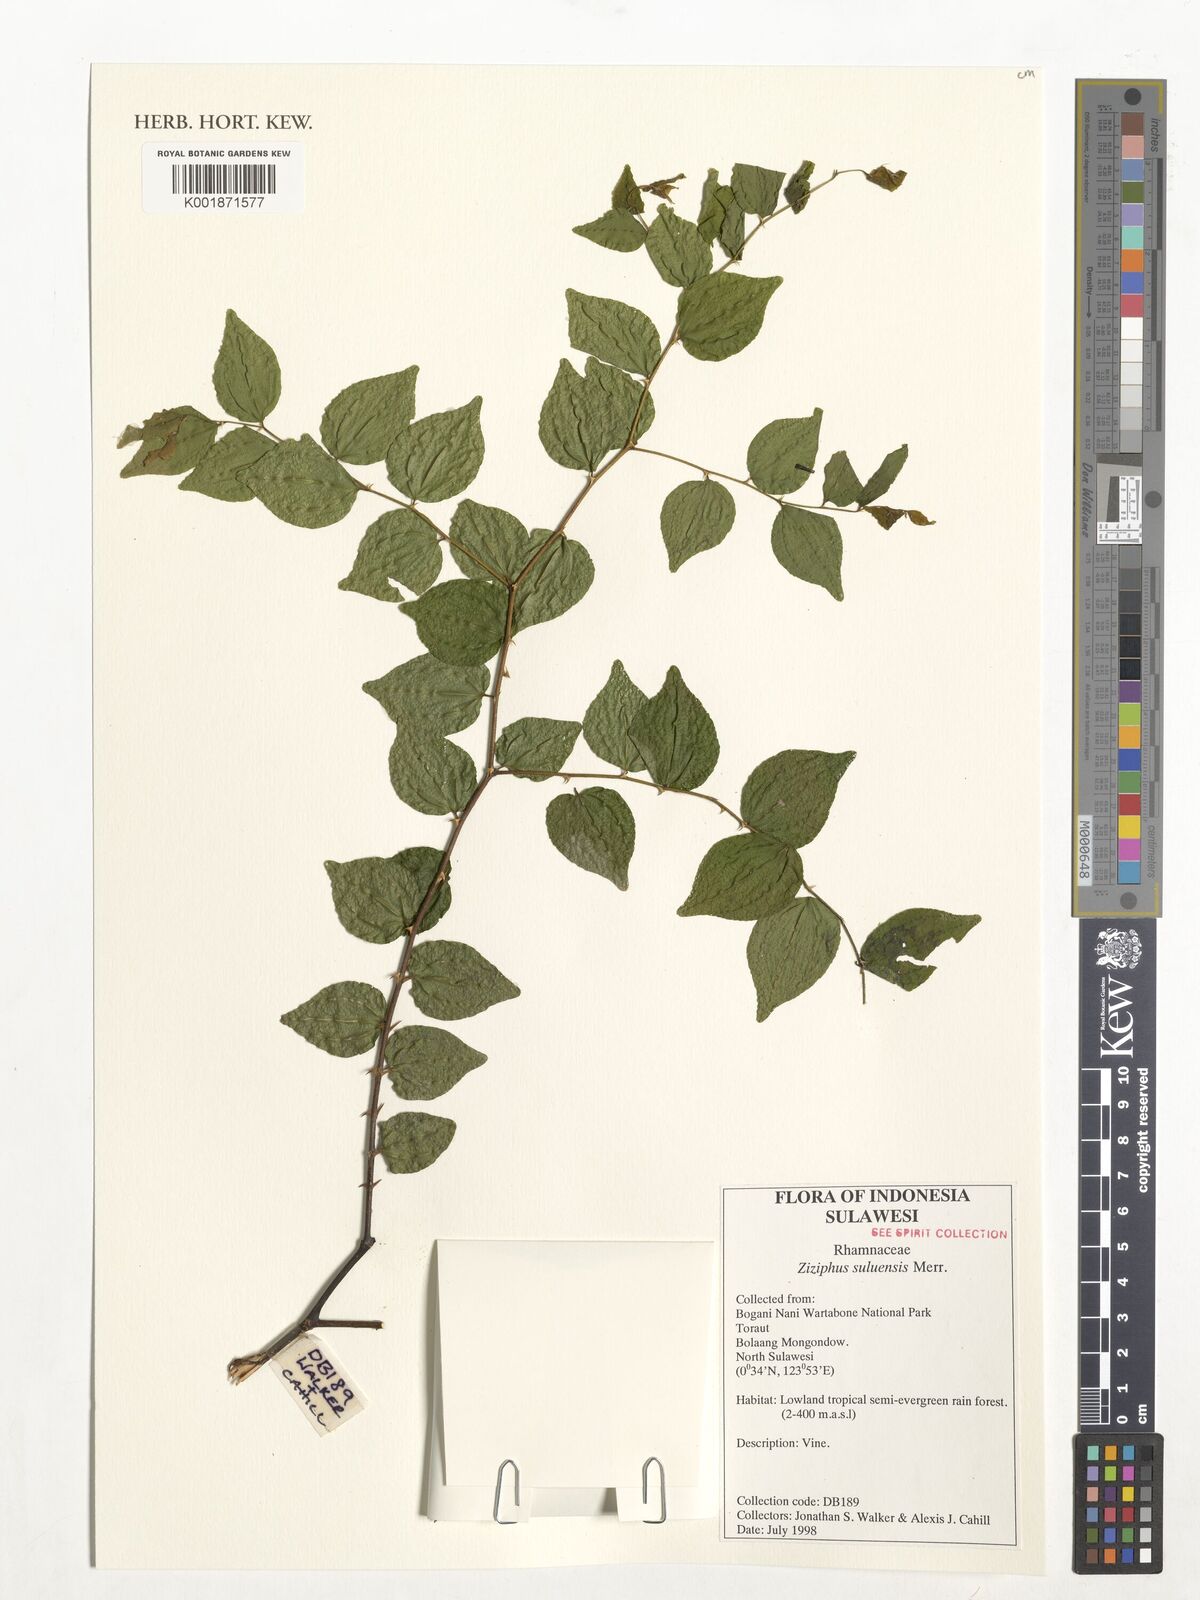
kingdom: Plantae
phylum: Tracheophyta
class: Magnoliopsida
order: Rosales
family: Rhamnaceae
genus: Ziziphus
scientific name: Ziziphus suluensis
